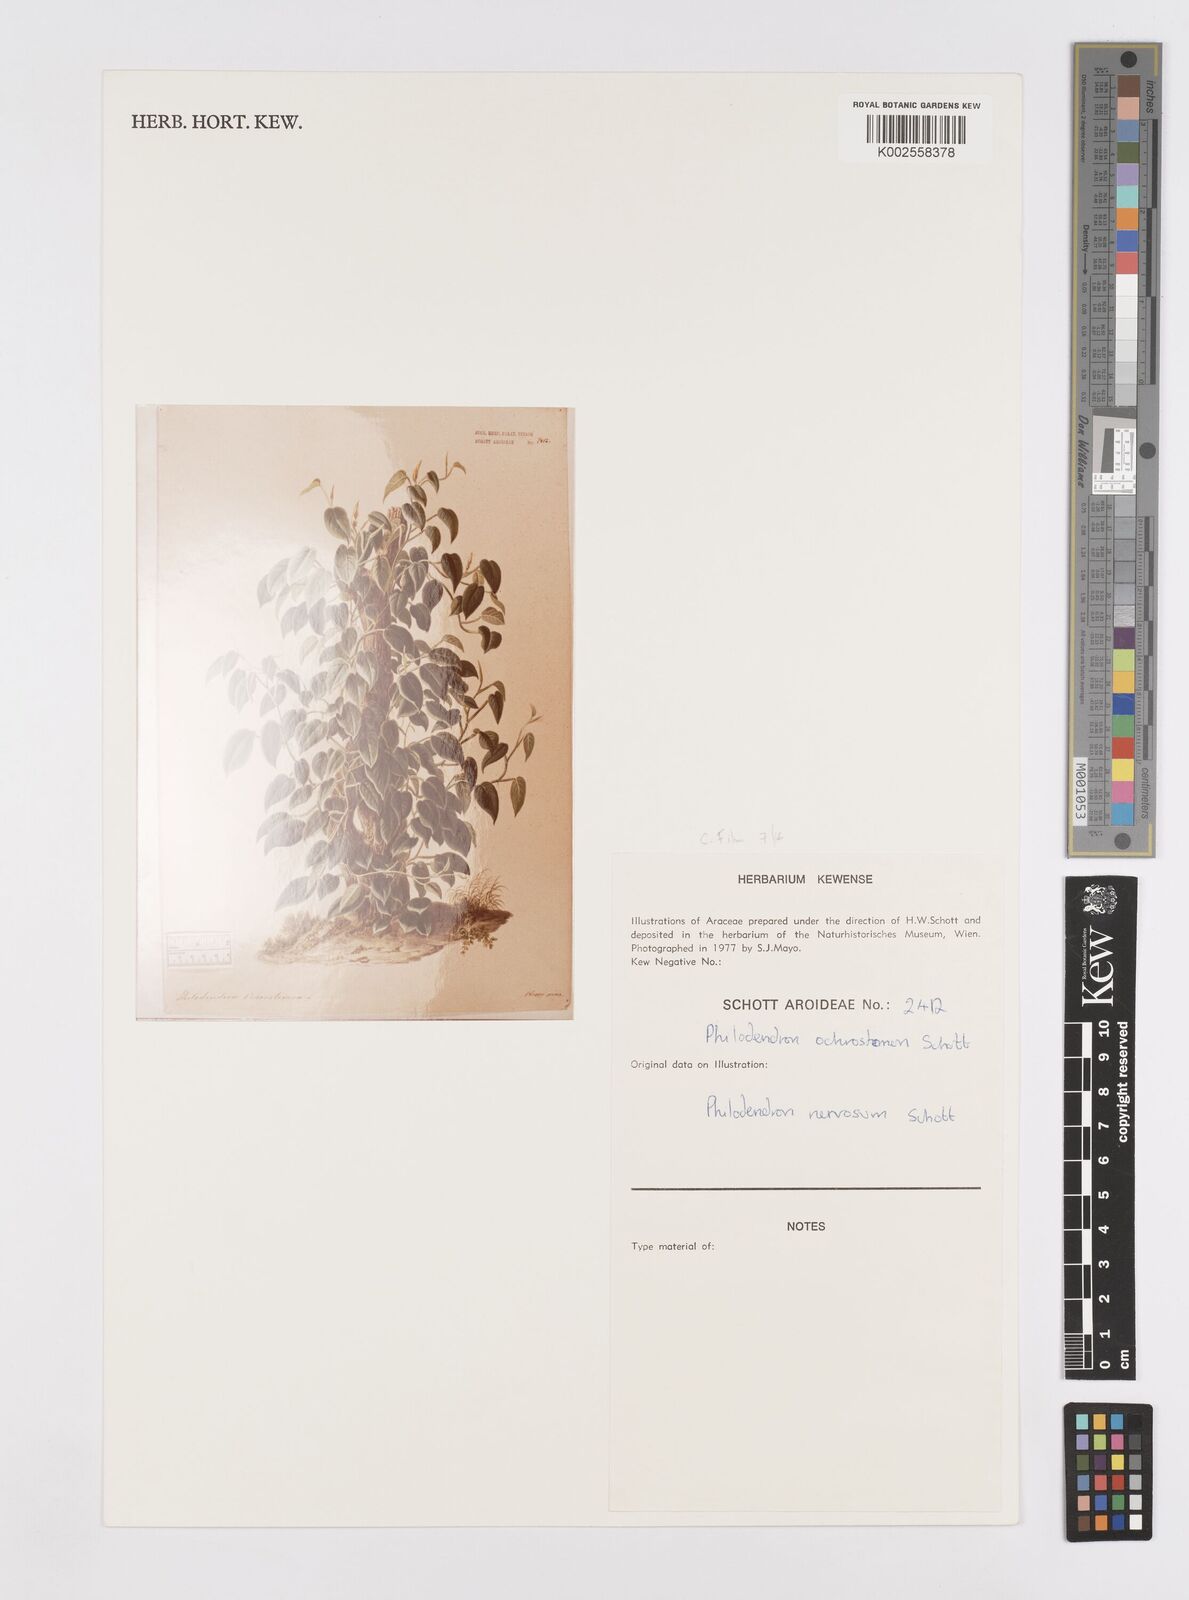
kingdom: Plantae
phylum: Tracheophyta
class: Liliopsida
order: Alismatales
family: Araceae
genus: Philodendron
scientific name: Philodendron ochrostemon
